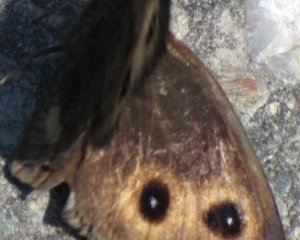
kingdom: Animalia
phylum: Arthropoda
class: Insecta
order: Lepidoptera
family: Nymphalidae
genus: Cercyonis
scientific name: Cercyonis pegala
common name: Common Wood-Nymph
